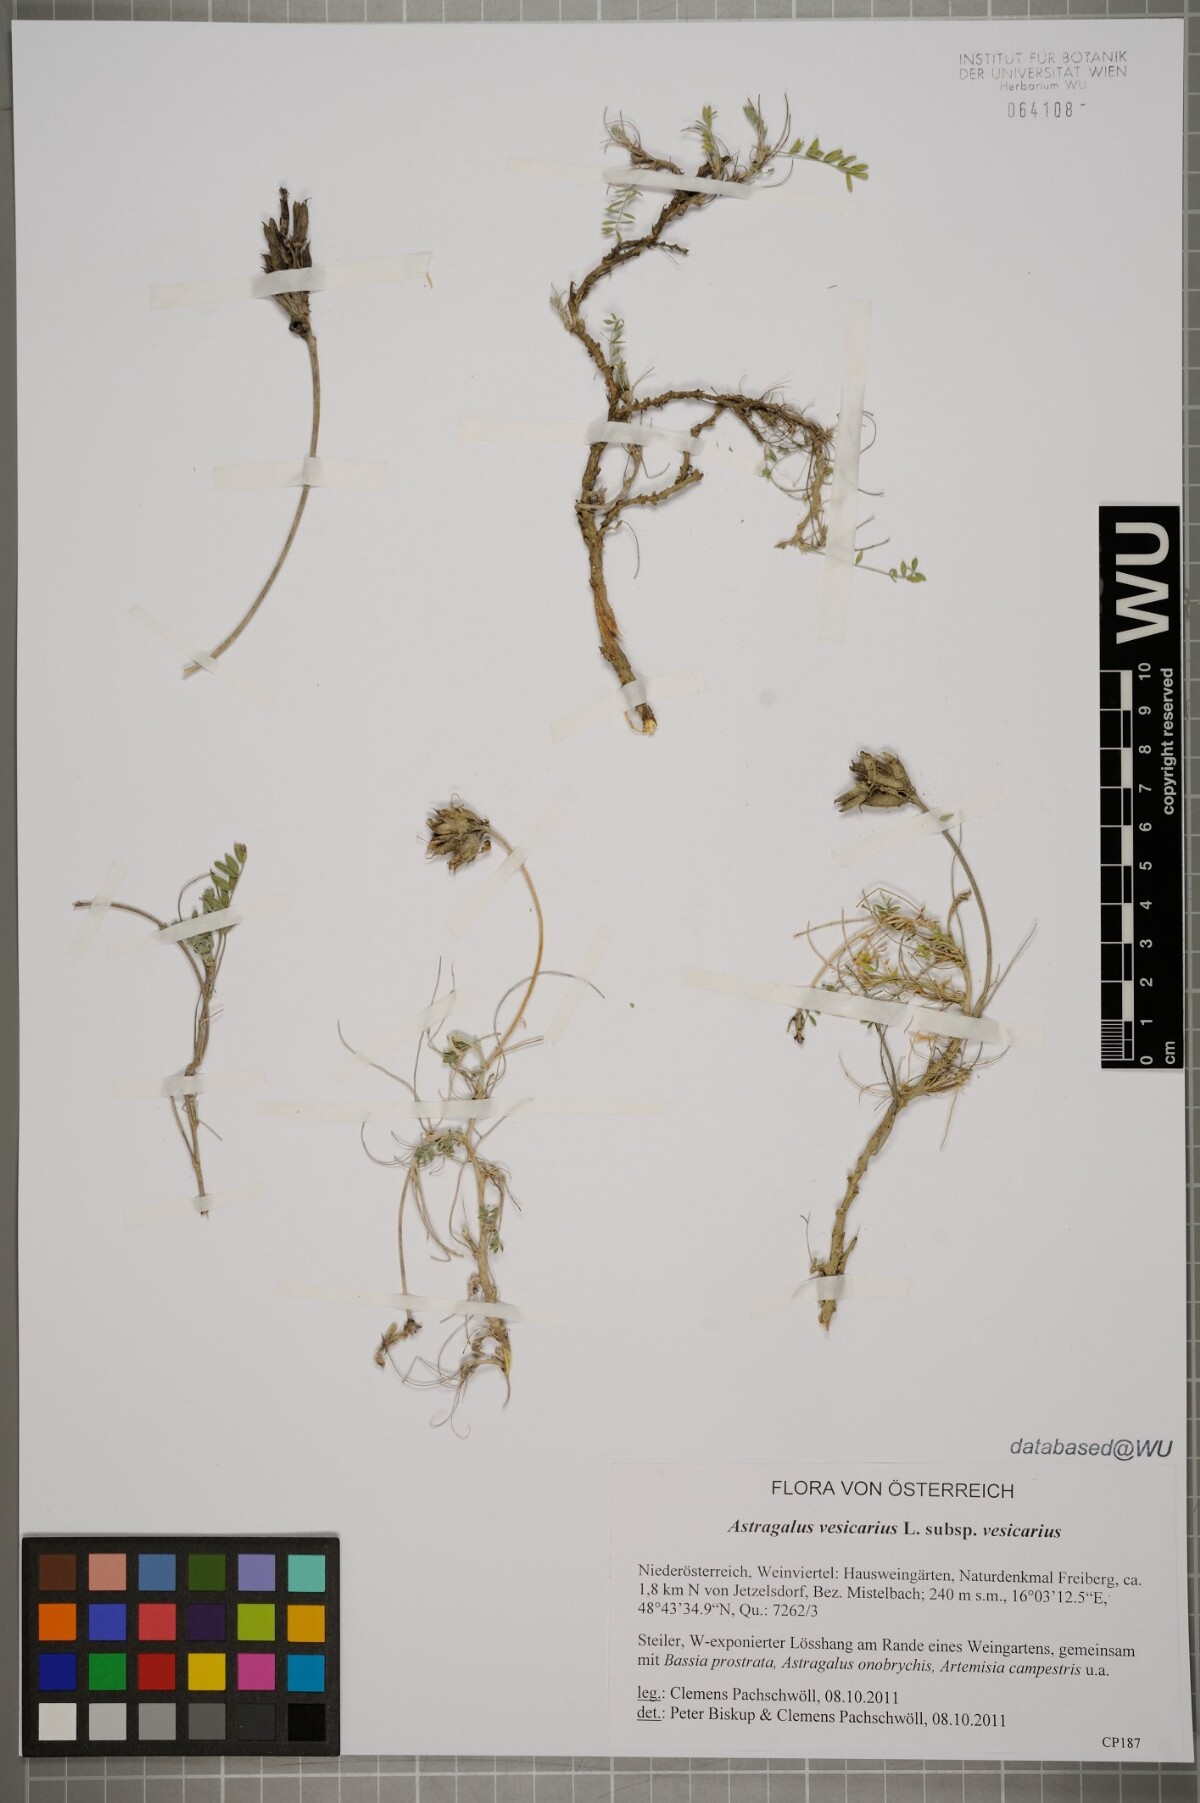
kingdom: Plantae
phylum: Tracheophyta
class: Magnoliopsida
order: Fabales
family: Fabaceae
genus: Astragalus
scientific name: Astragalus vesicarius
